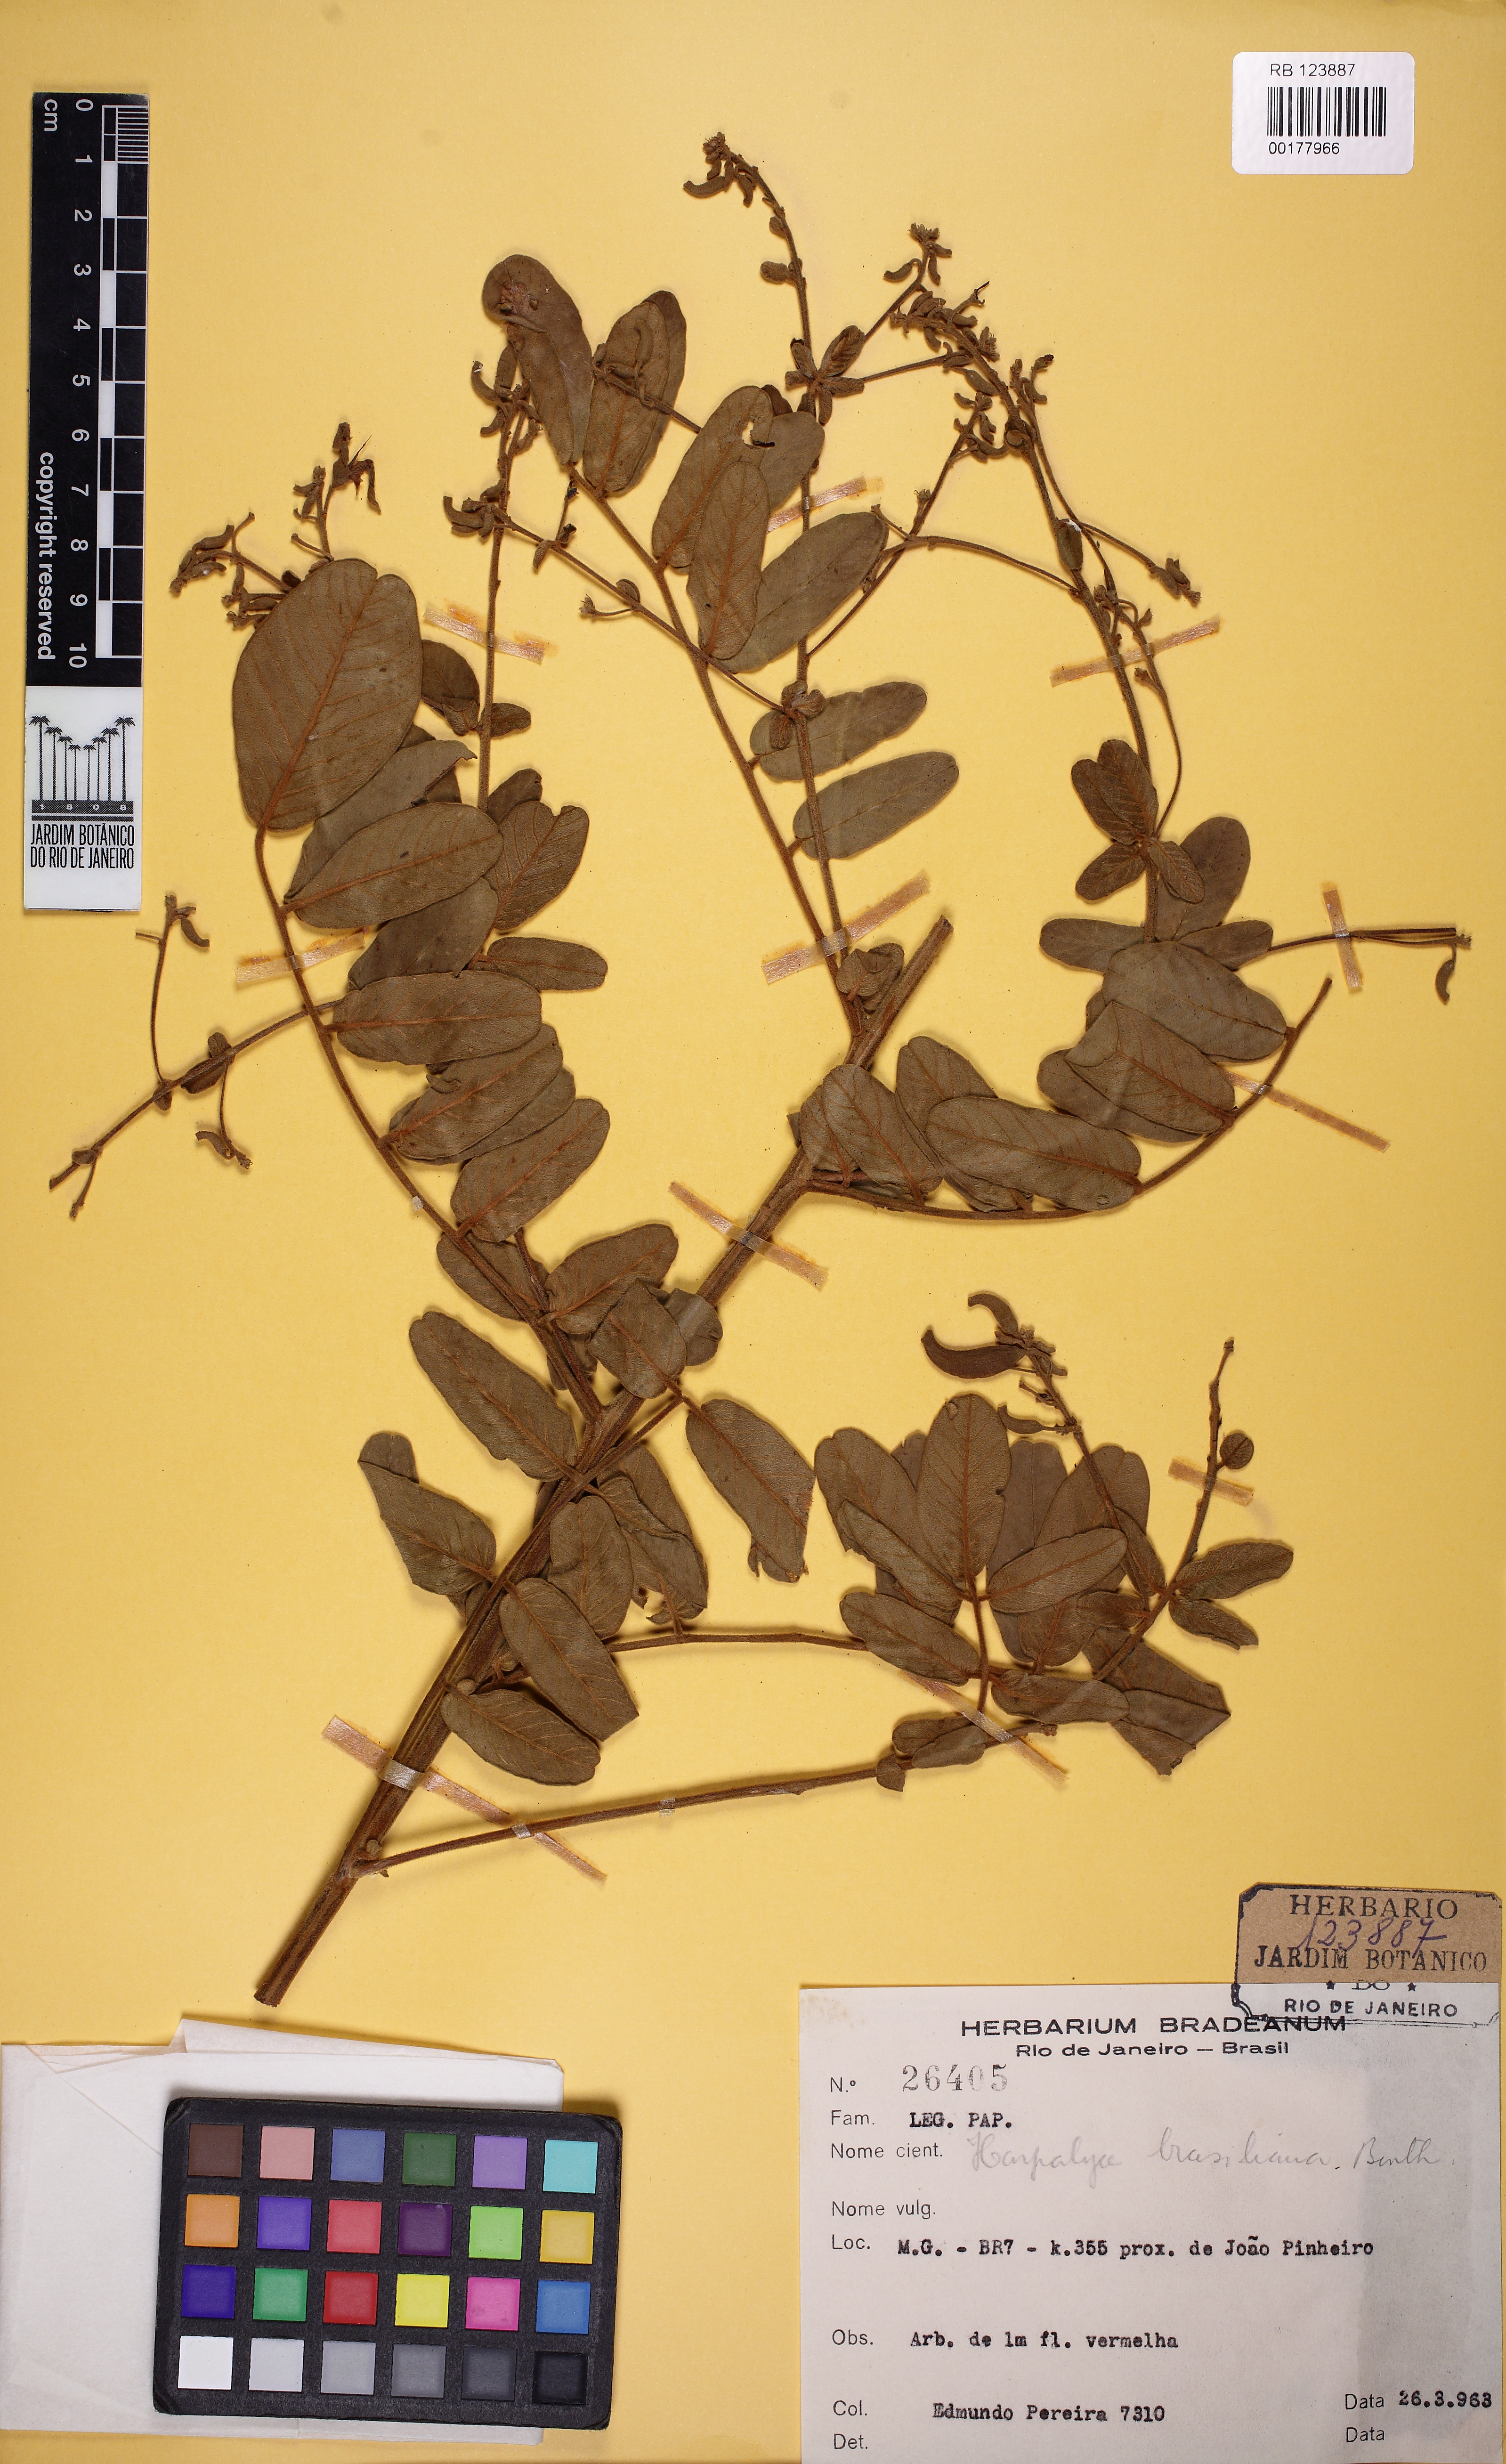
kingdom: Plantae
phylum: Tracheophyta
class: Magnoliopsida
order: Fabales
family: Fabaceae
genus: Harpalyce
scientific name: Harpalyce brasiliana
